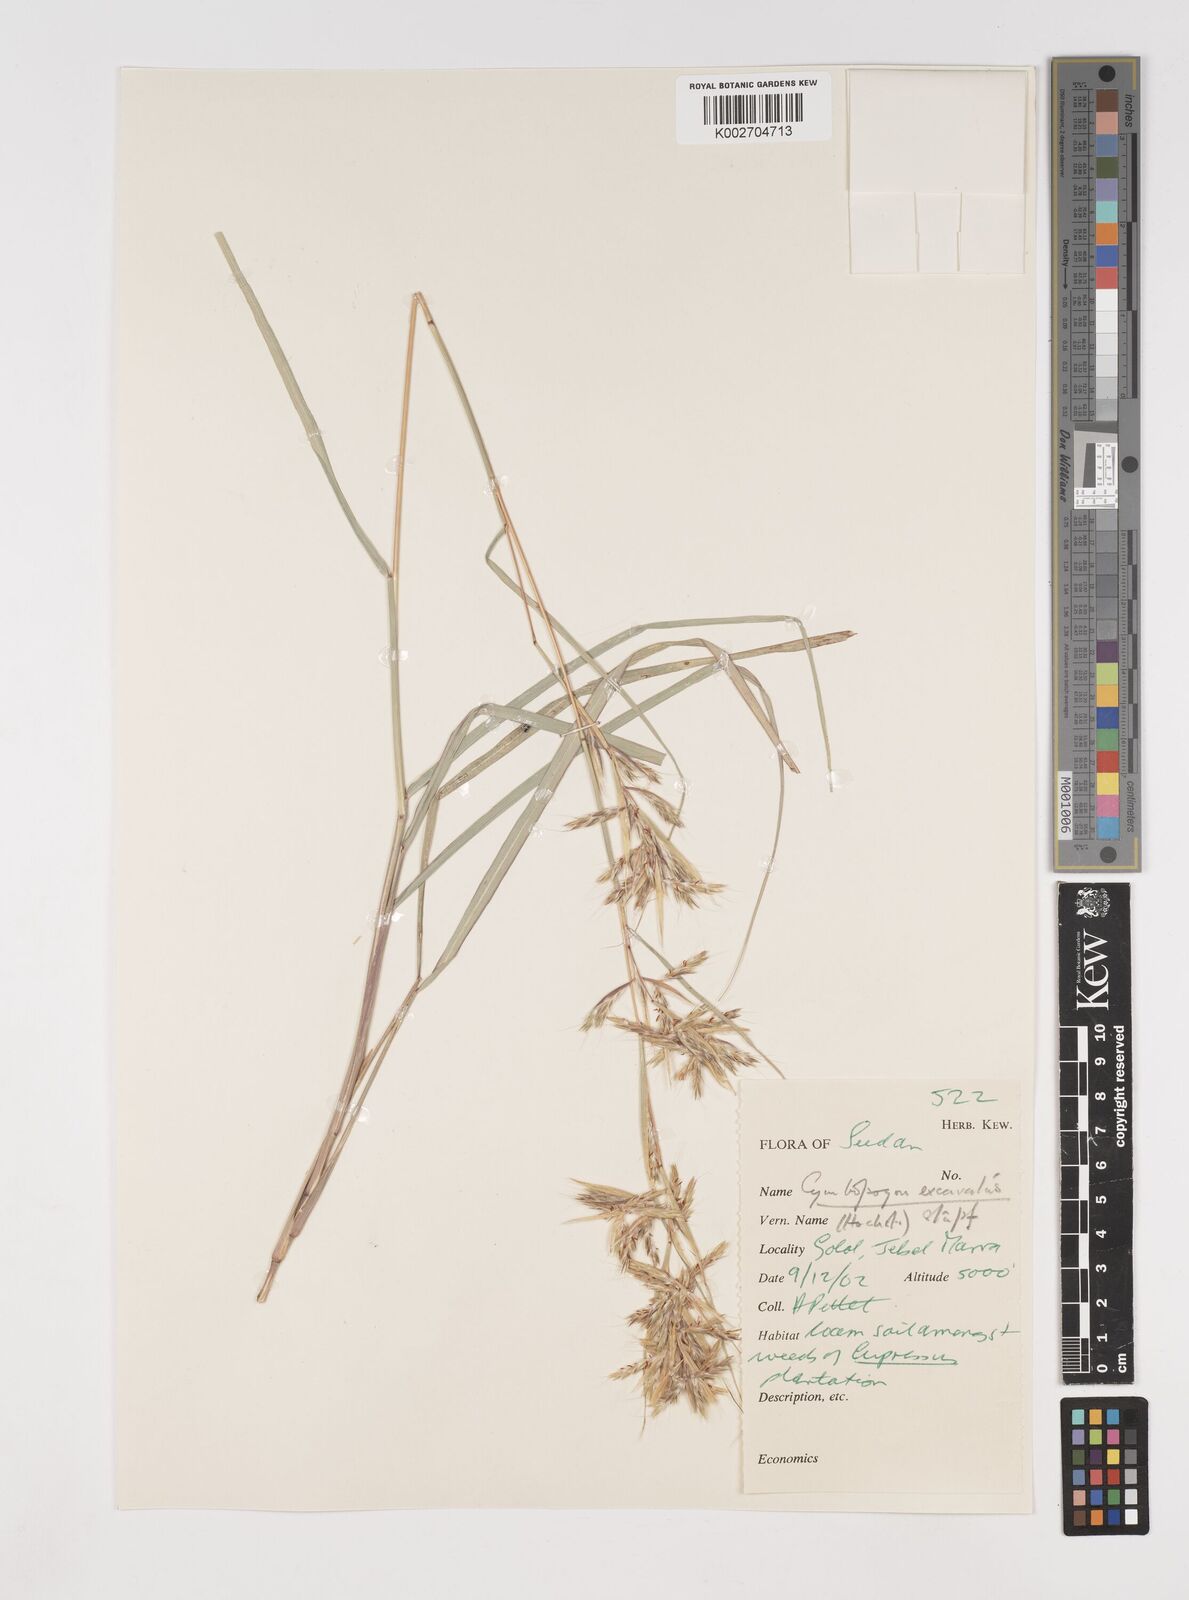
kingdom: Plantae
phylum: Tracheophyta
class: Liliopsida
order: Poales
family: Poaceae
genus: Cymbopogon
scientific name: Cymbopogon
